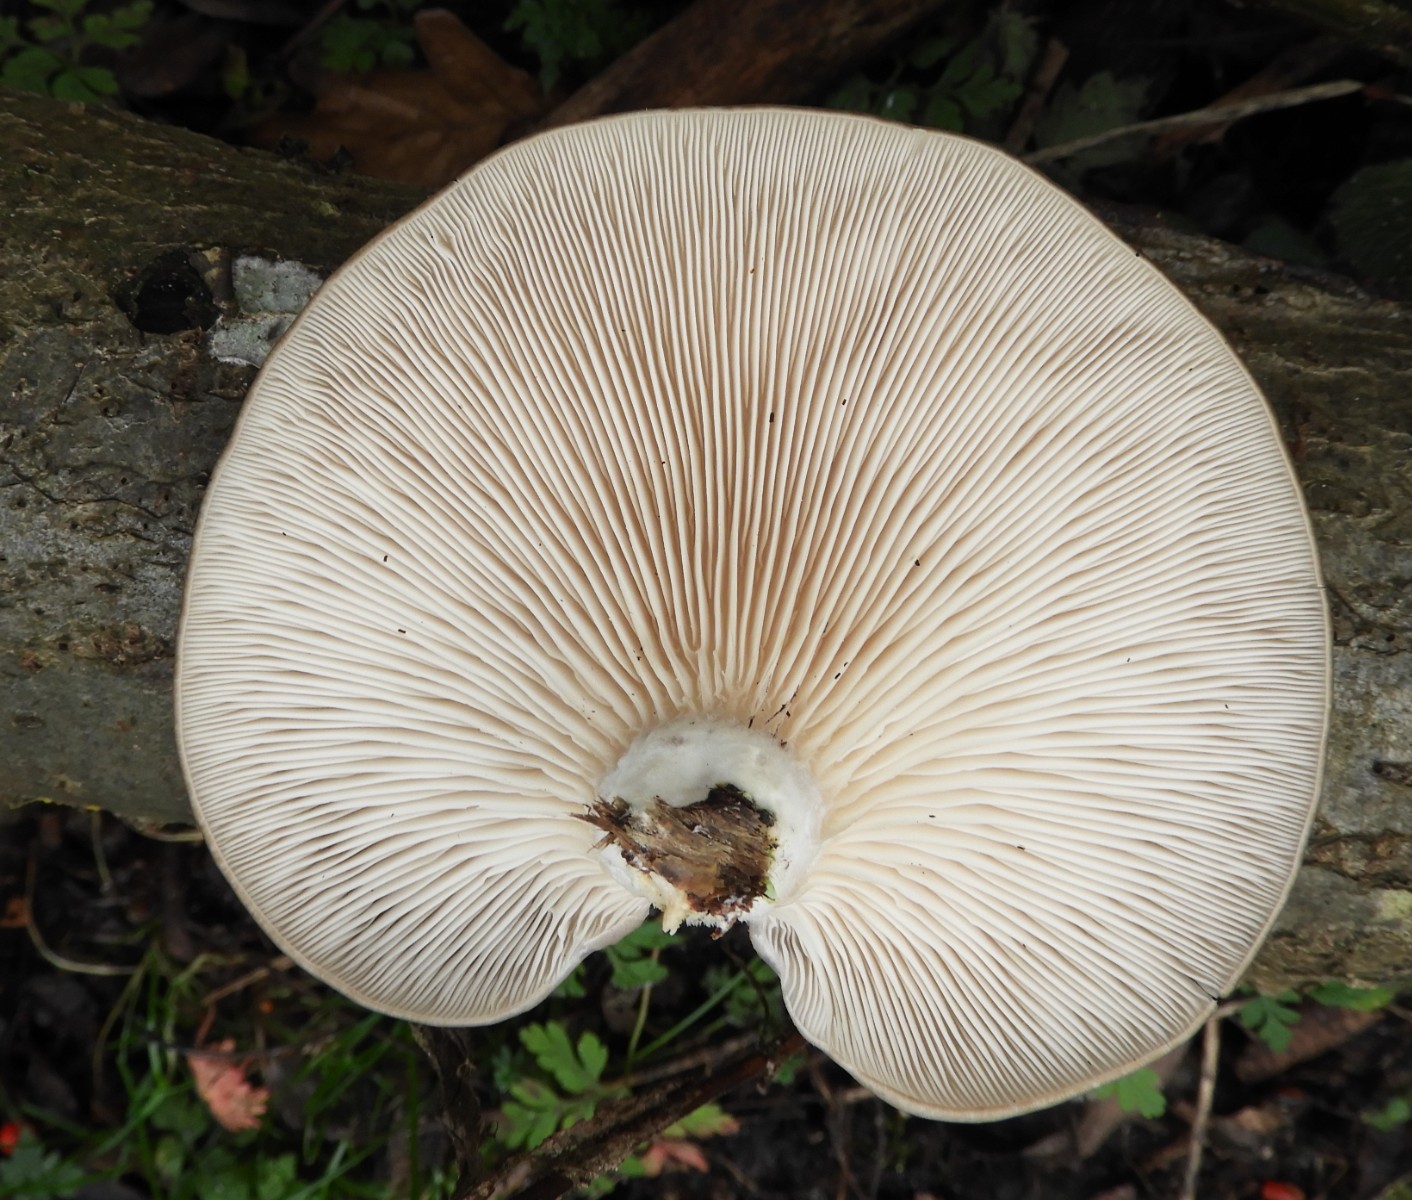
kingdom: Fungi
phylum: Basidiomycota
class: Agaricomycetes
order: Agaricales
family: Pleurotaceae
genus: Pleurotus
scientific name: Pleurotus ostreatus
